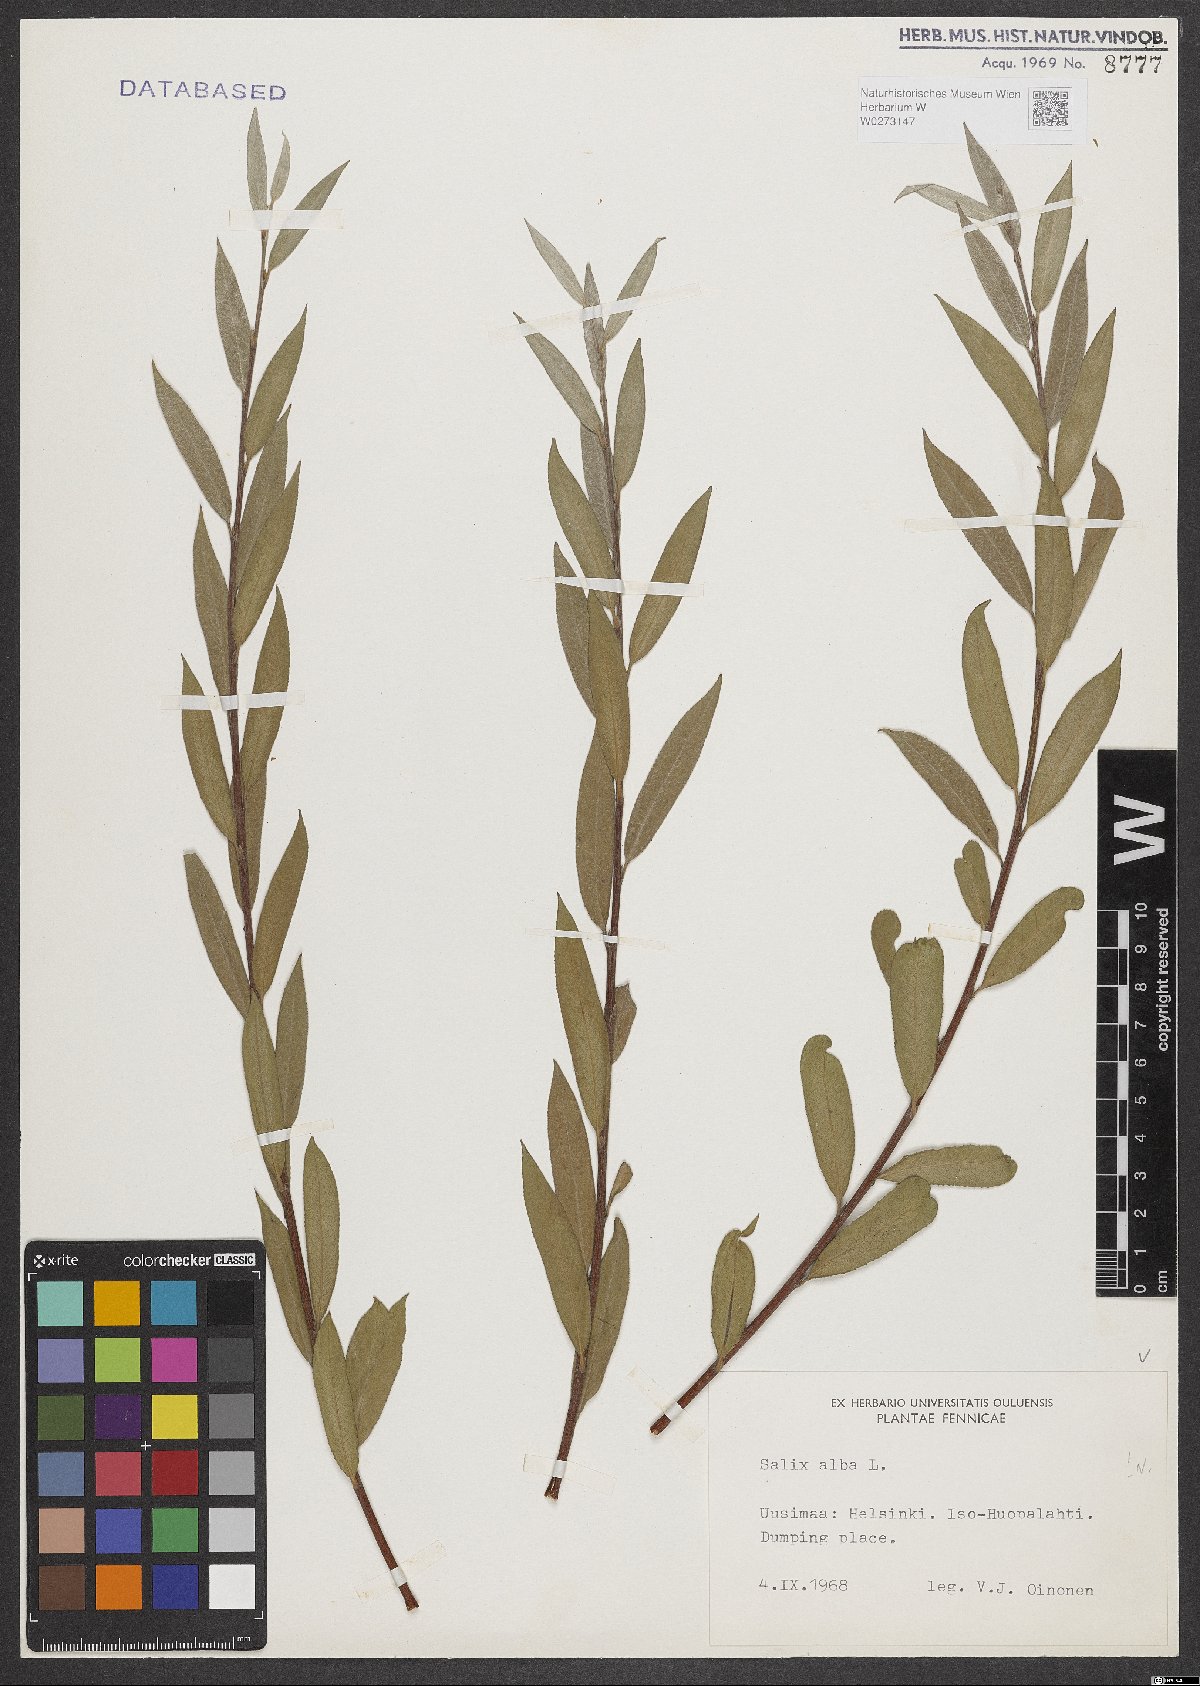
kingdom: Plantae
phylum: Tracheophyta
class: Magnoliopsida
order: Malpighiales
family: Salicaceae
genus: Salix
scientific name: Salix alba
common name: White willow
